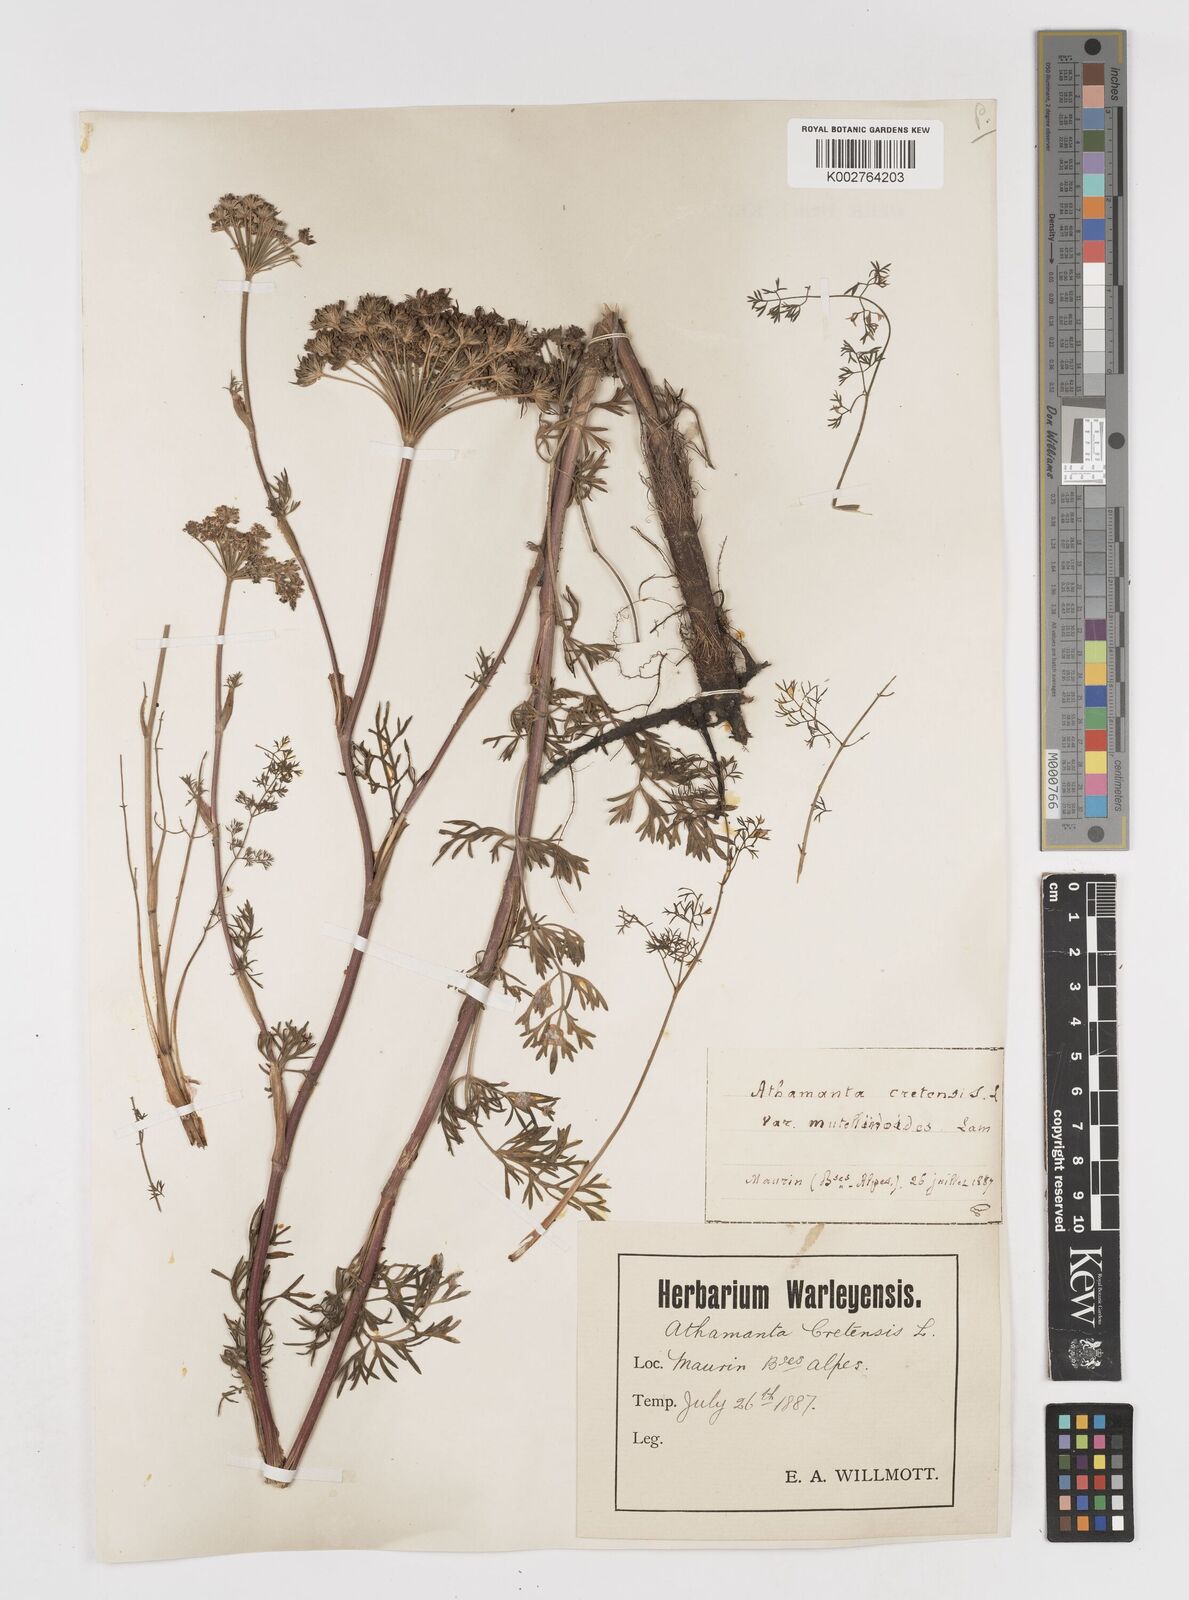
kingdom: Plantae
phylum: Tracheophyta
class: Magnoliopsida
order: Apiales
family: Apiaceae
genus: Athamanta
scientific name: Athamanta cretensis
